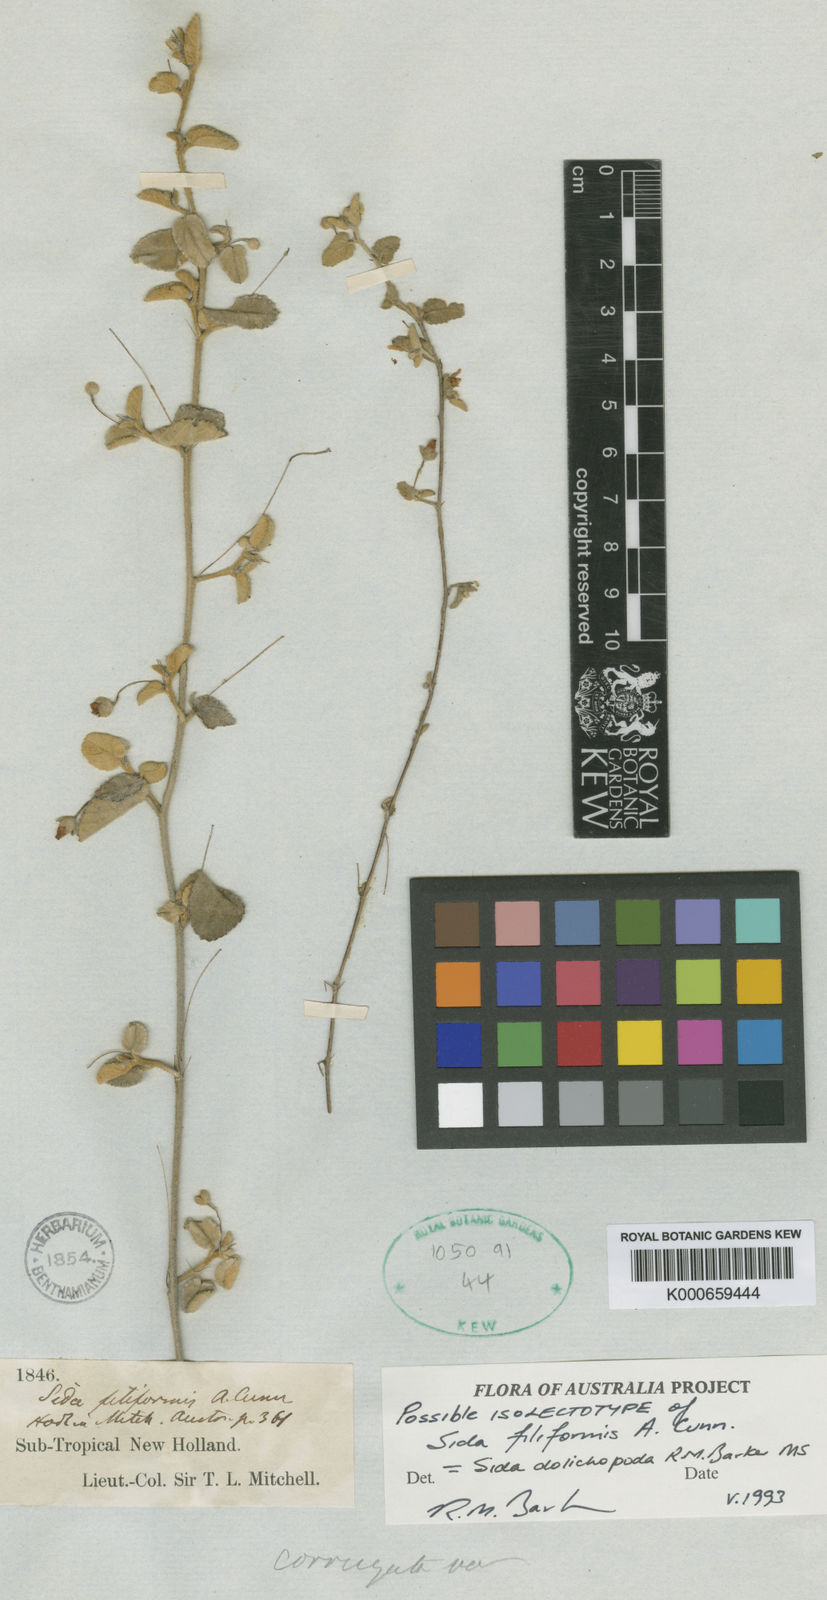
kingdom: Plantae
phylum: Tracheophyta
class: Magnoliopsida
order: Malvales
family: Malvaceae
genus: Sida
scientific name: Sida corrugata
